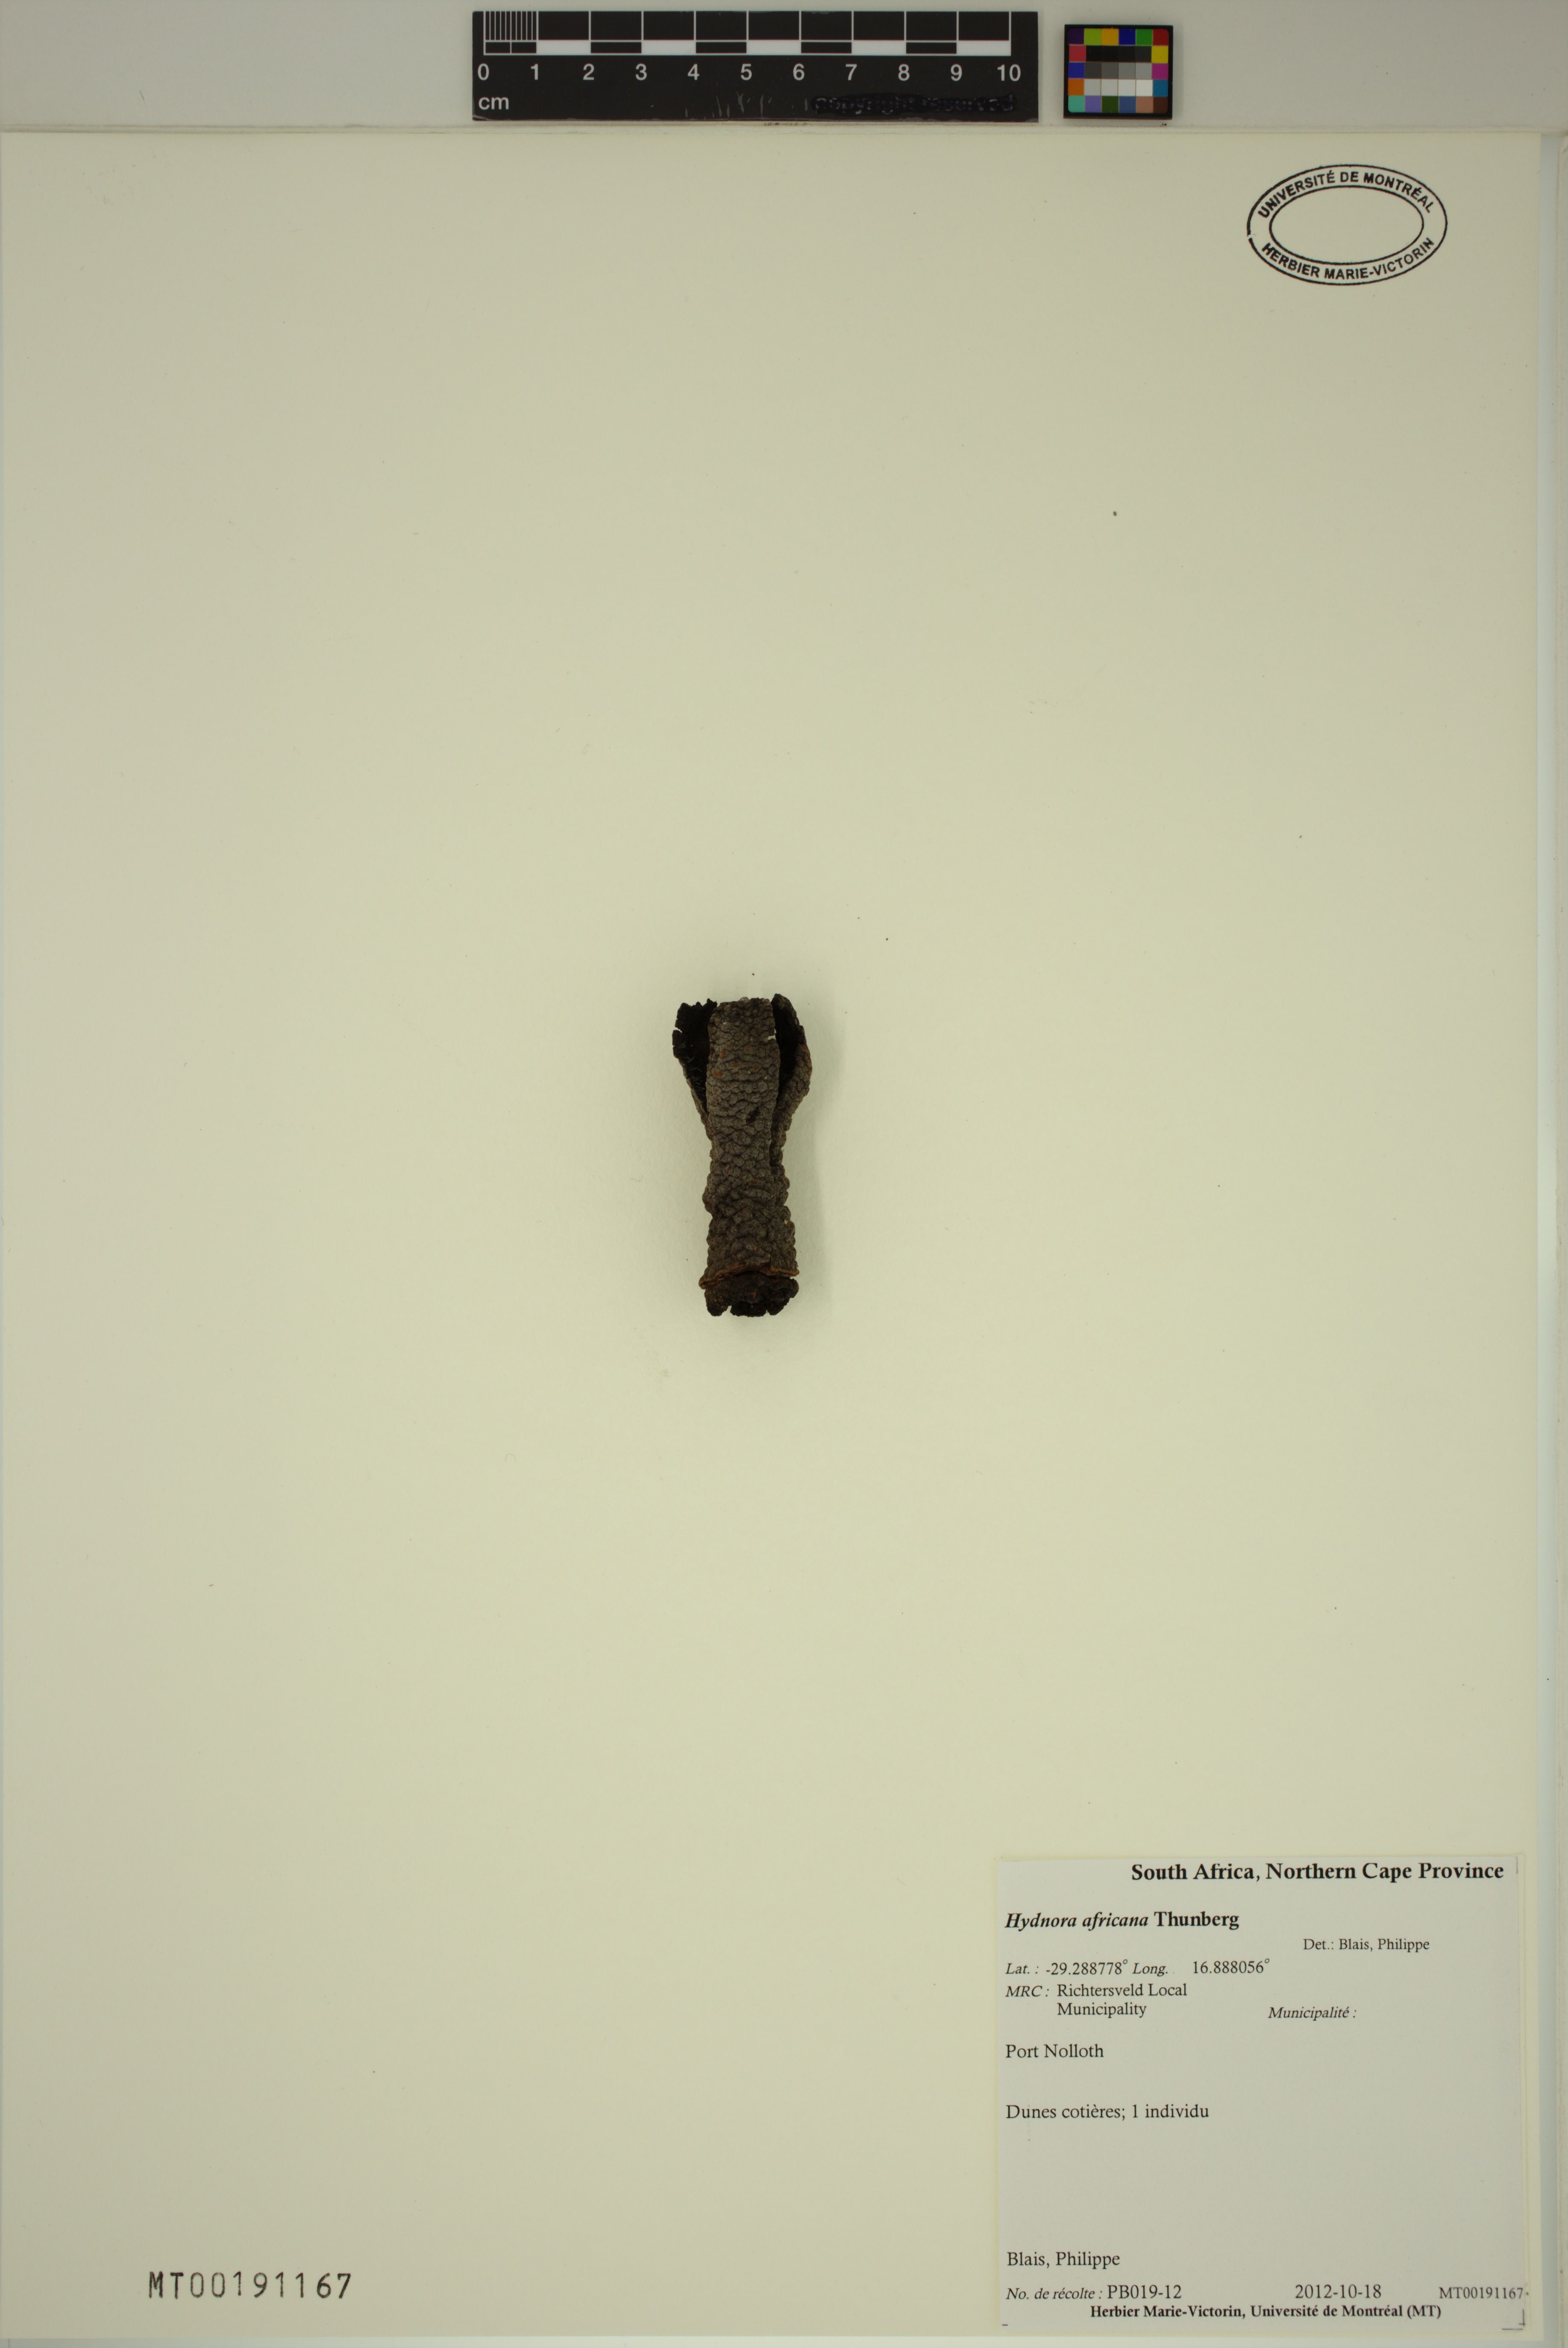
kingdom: Plantae
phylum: Tracheophyta
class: Magnoliopsida
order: Piperales
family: Hydnoraceae
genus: Hydnora
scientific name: Hydnora africana
